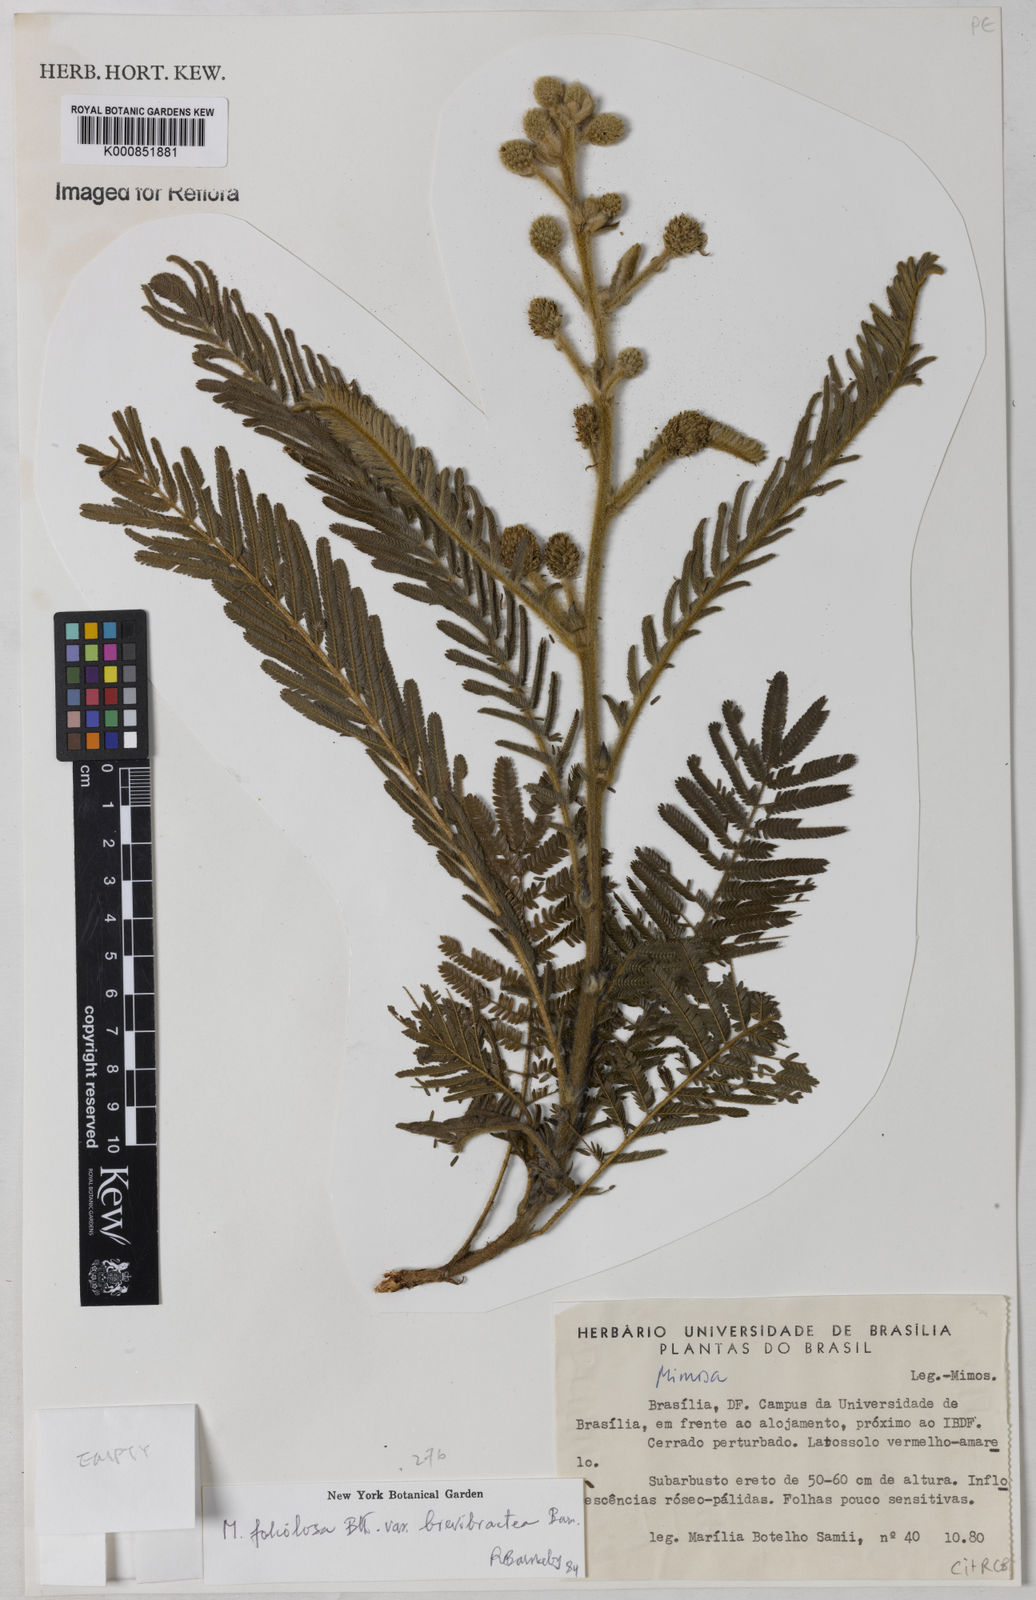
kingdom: Plantae
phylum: Tracheophyta
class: Magnoliopsida
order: Fabales
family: Fabaceae
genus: Mimosa
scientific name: Mimosa albolanata
